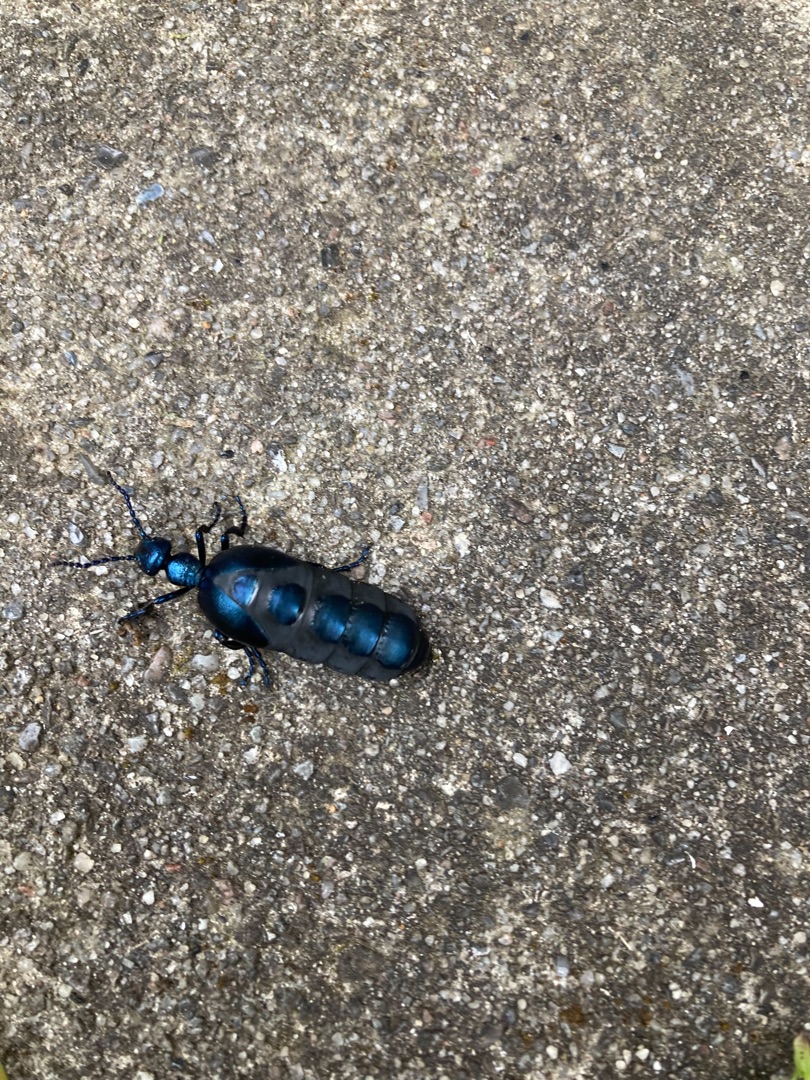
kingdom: Animalia
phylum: Arthropoda
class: Insecta
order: Coleoptera
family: Meloidae
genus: Meloe
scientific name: Meloe violaceus
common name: Blå oliebille
